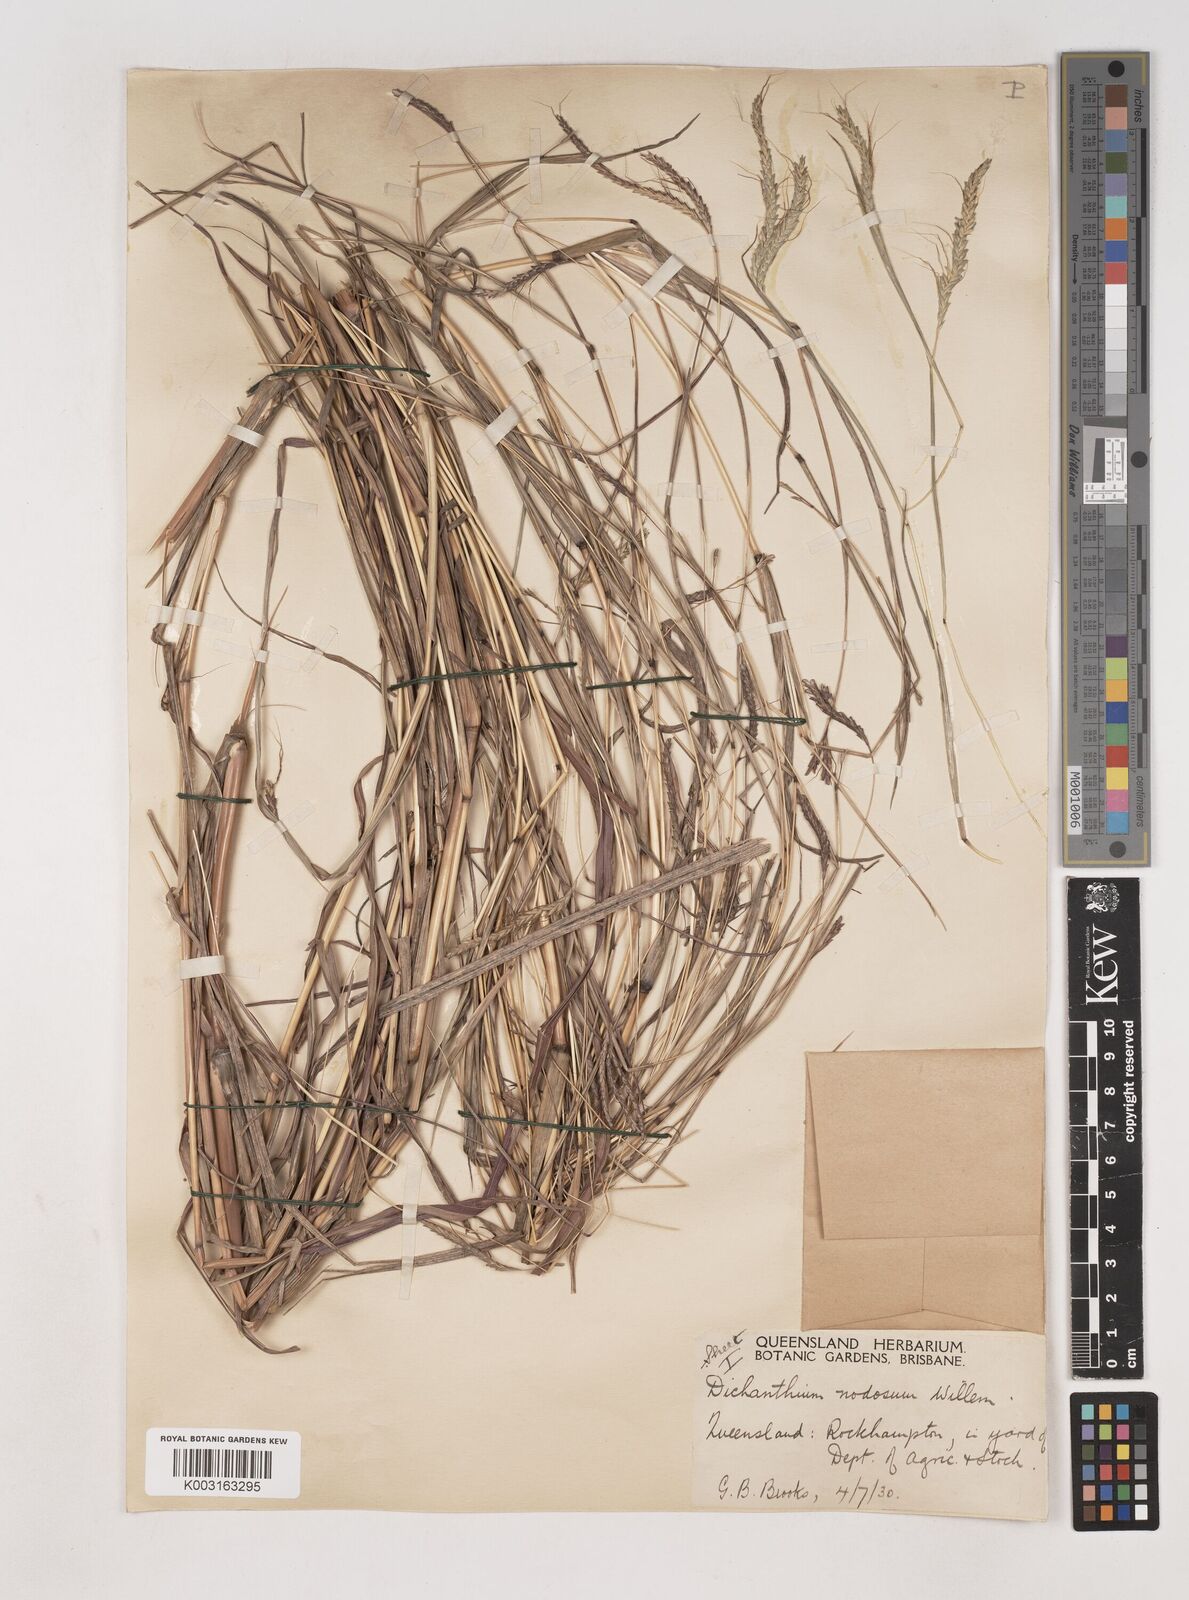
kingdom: Plantae
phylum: Tracheophyta
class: Liliopsida
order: Poales
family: Poaceae
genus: Dichanthium
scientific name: Dichanthium aristatum
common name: Angleton bluestem
